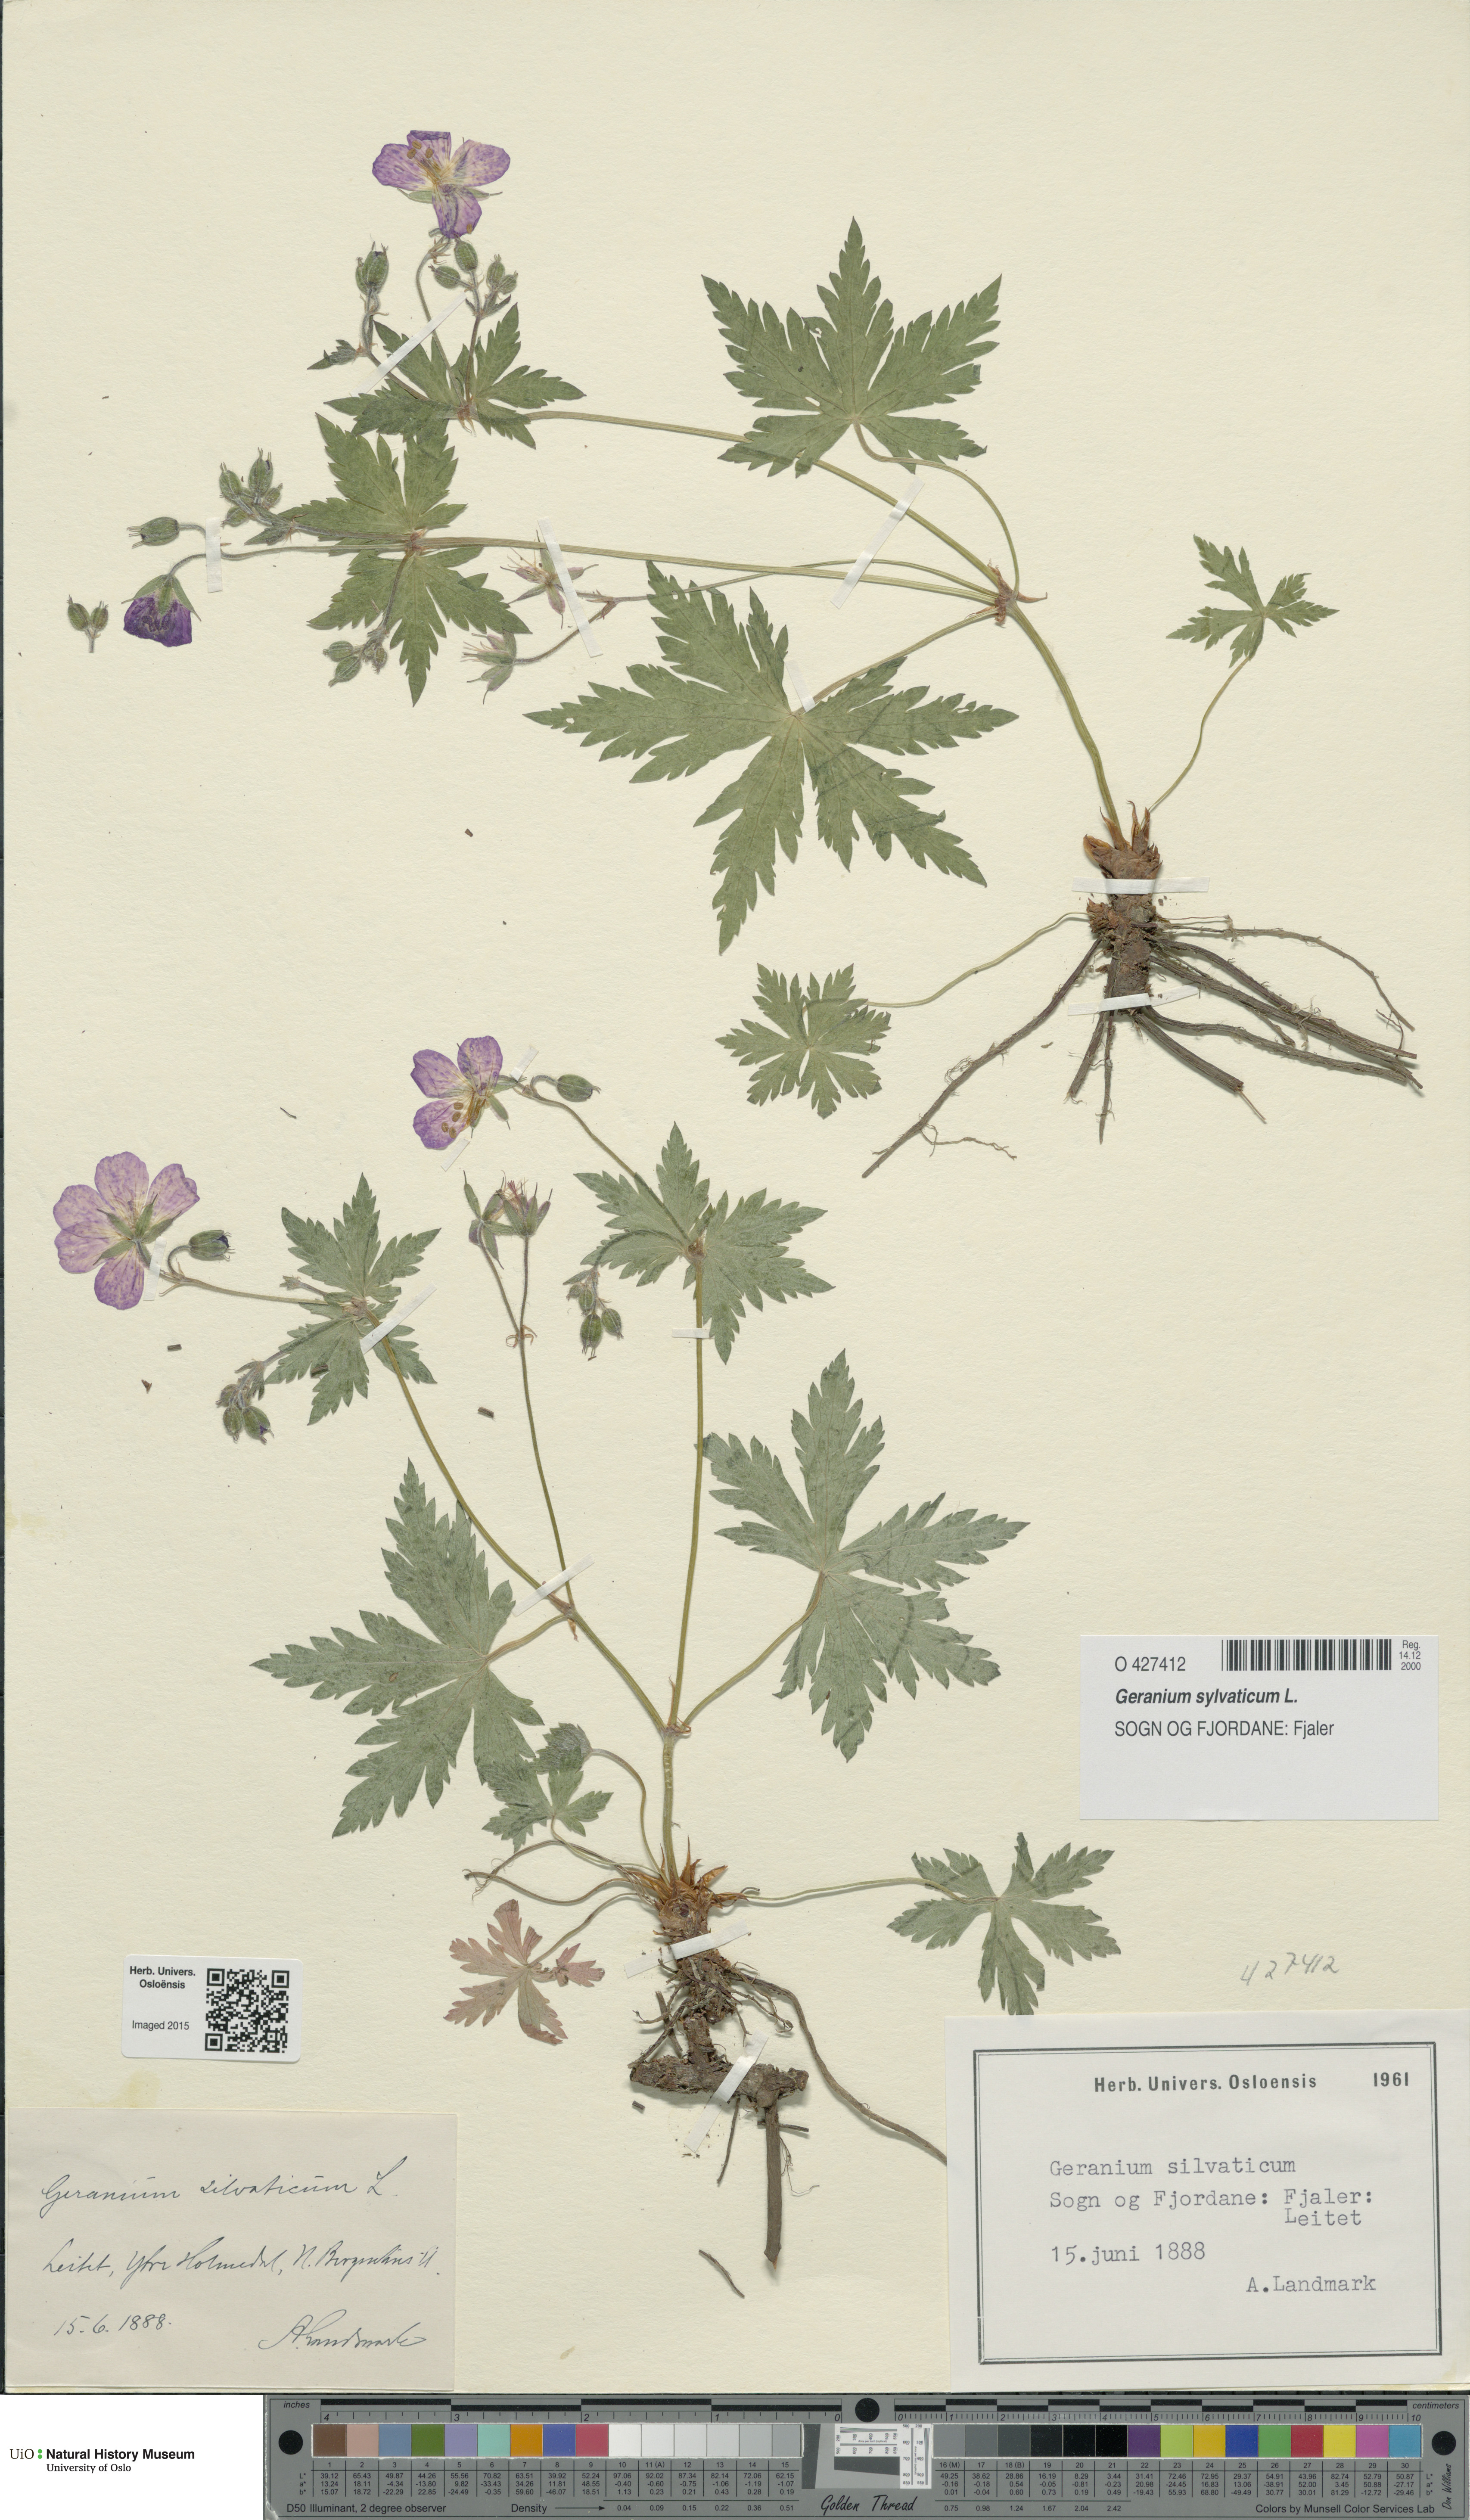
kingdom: Plantae
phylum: Tracheophyta
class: Magnoliopsida
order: Geraniales
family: Geraniaceae
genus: Geranium
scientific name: Geranium sylvaticum
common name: Wood crane's-bill
